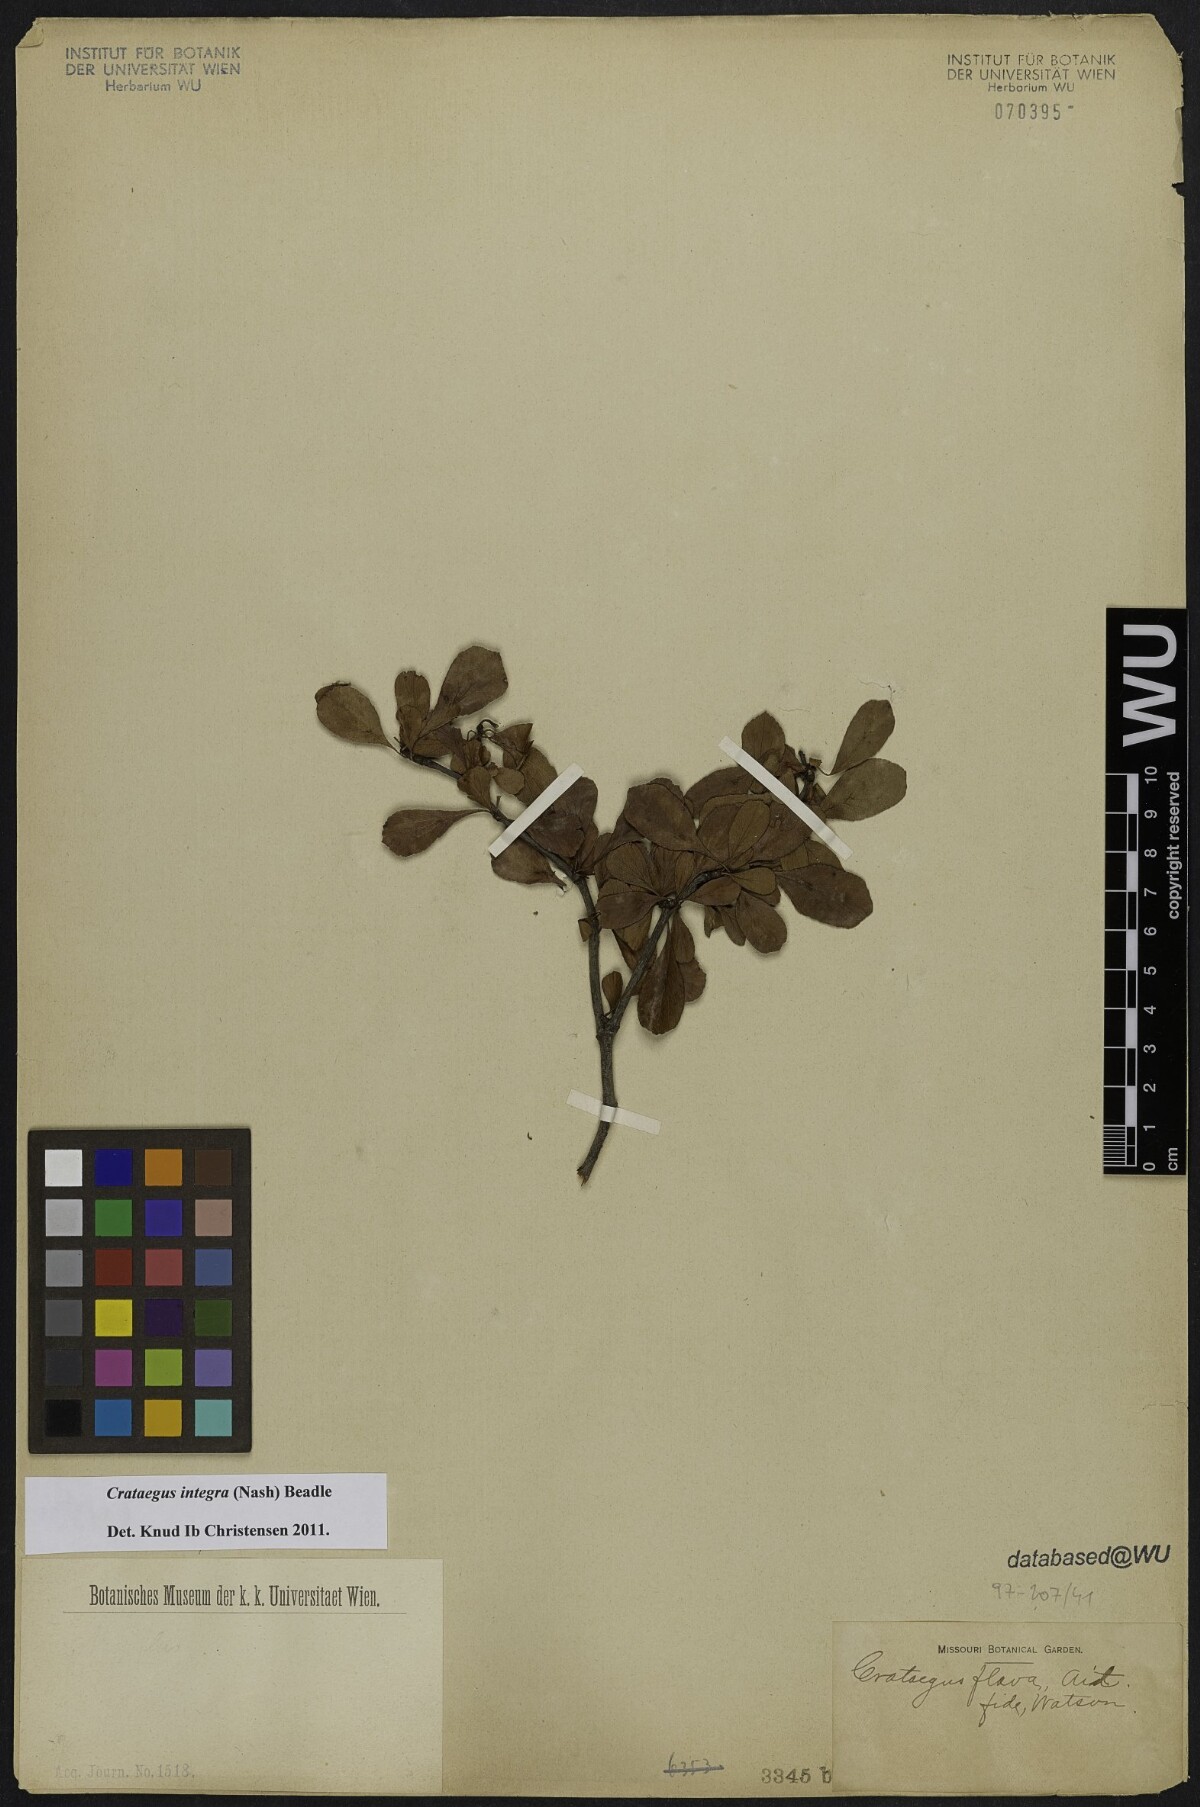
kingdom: Plantae
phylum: Tracheophyta
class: Magnoliopsida
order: Rosales
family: Rosaceae
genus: Crataegus
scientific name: Crataegus lassa
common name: Florida hawthorn
